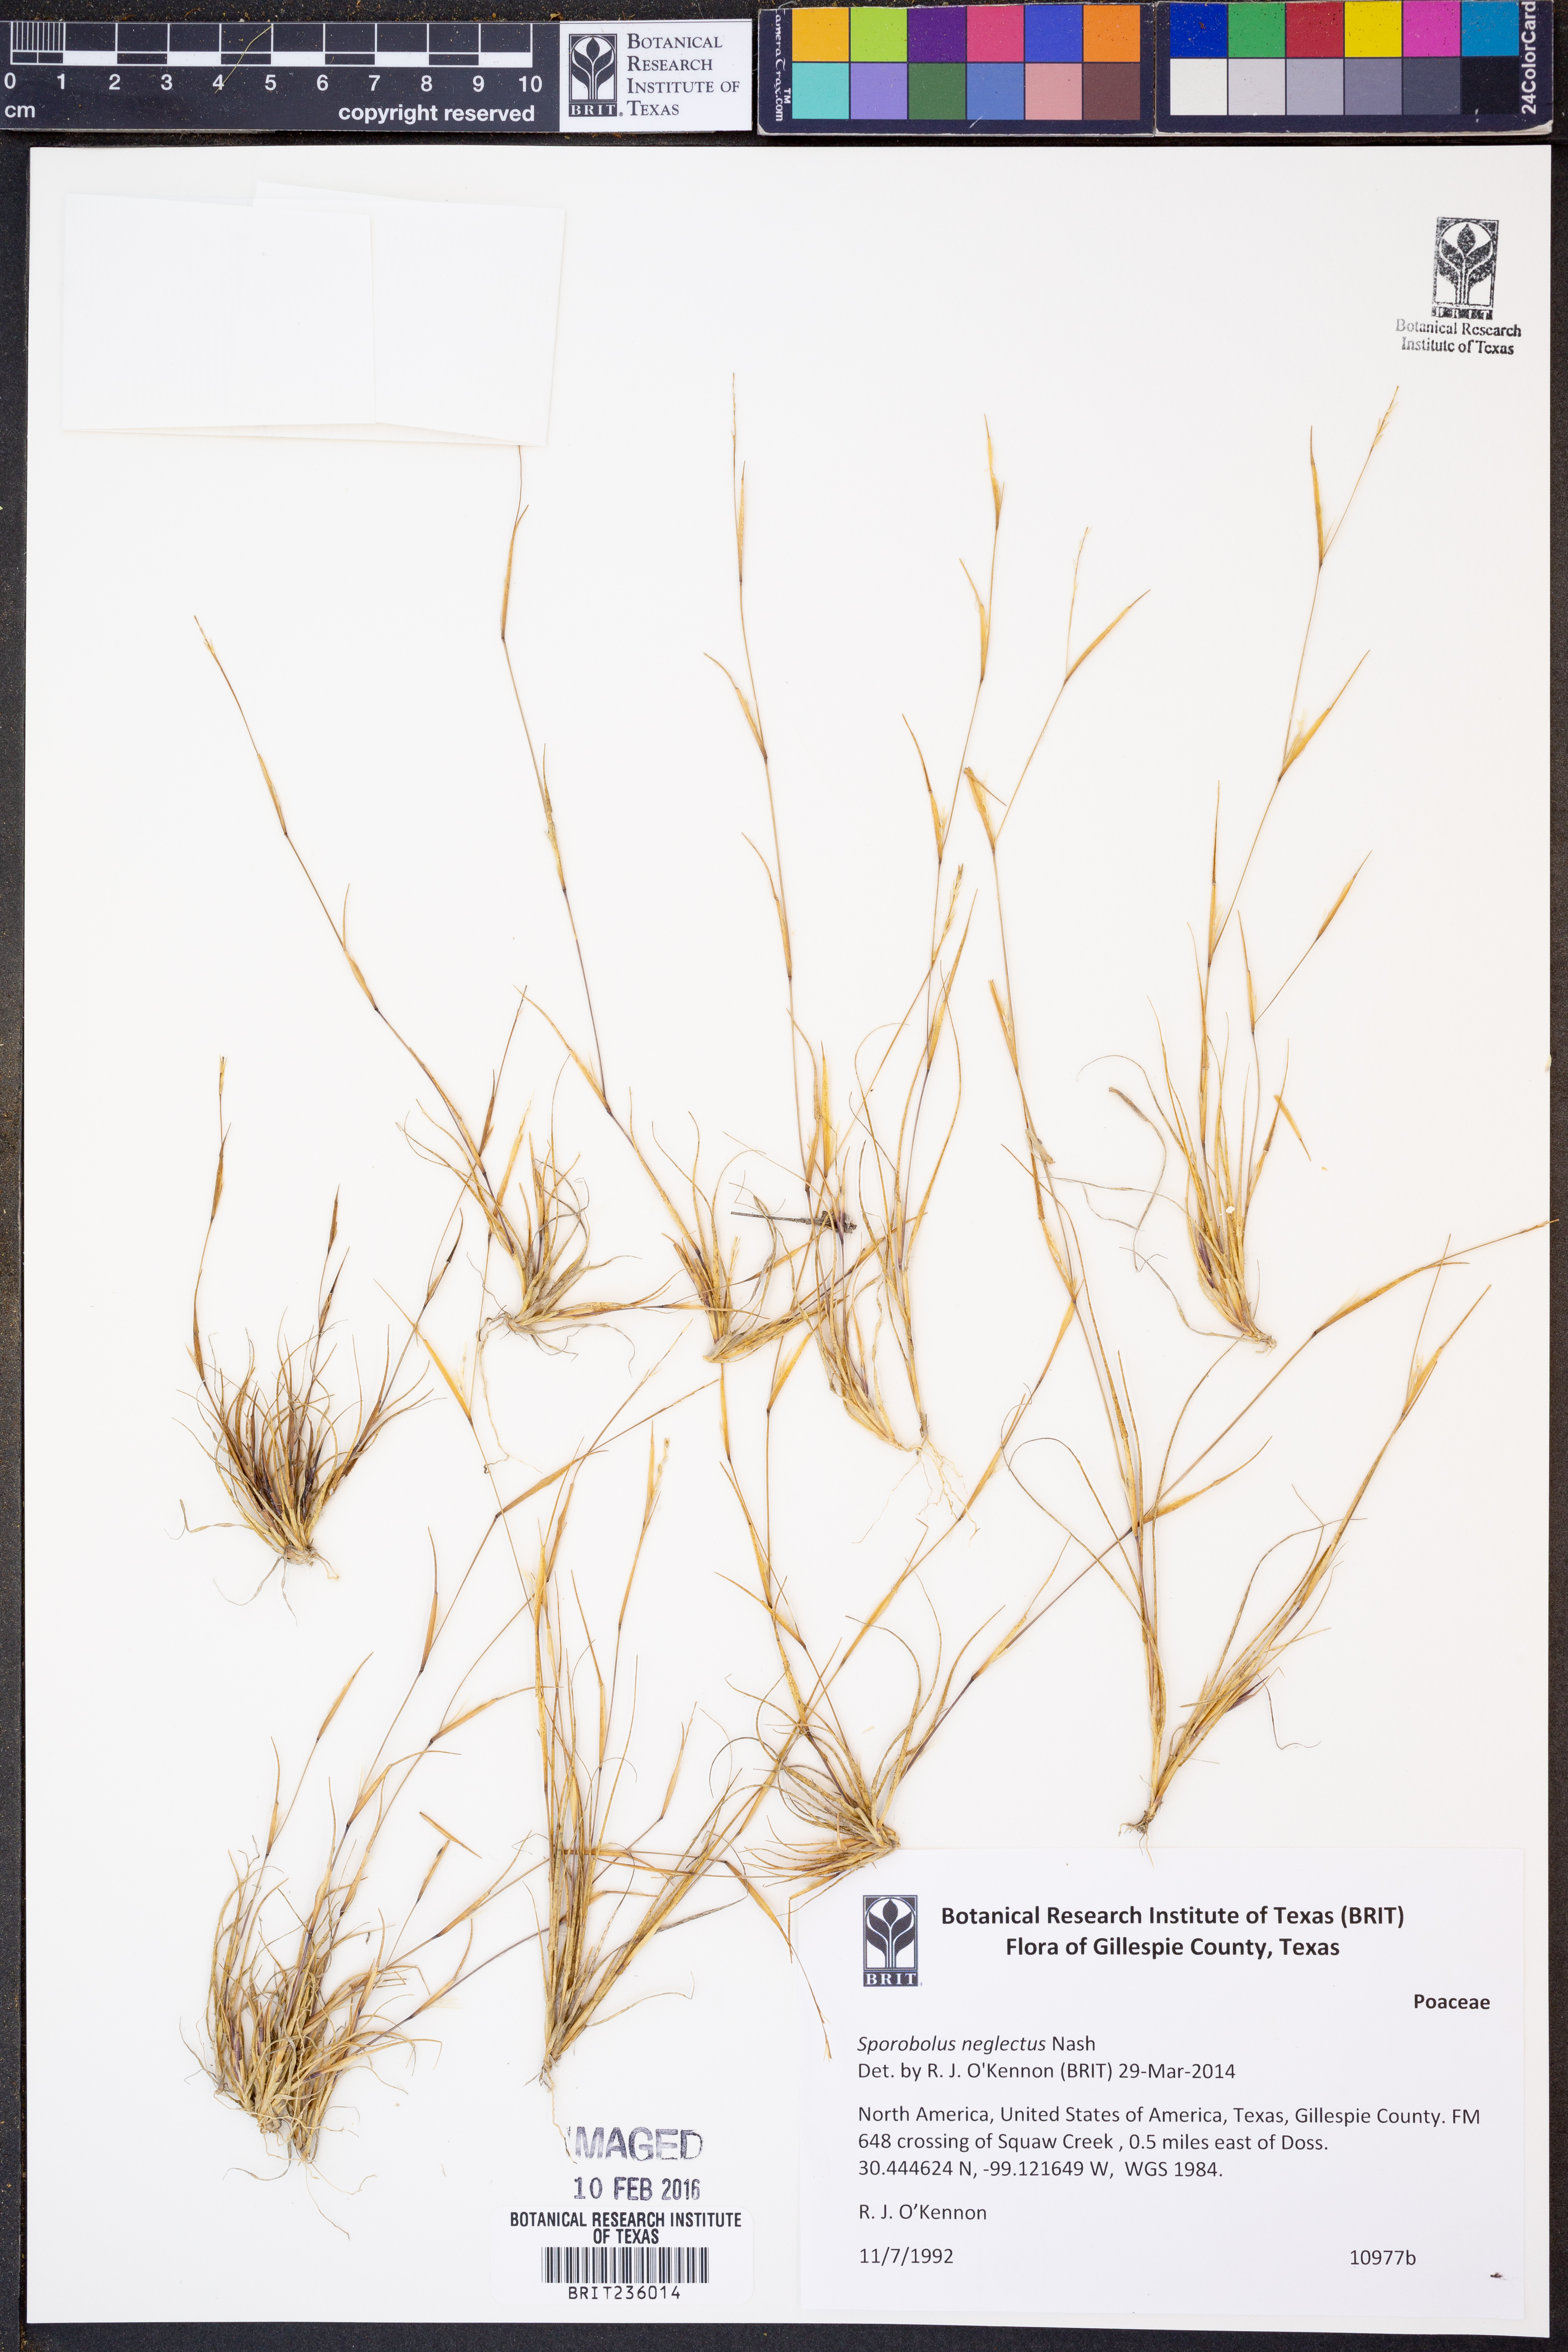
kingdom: Plantae
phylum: Tracheophyta
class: Liliopsida
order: Poales
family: Poaceae
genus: Sporobolus
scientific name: Sporobolus neglectus
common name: Annual dropseed
